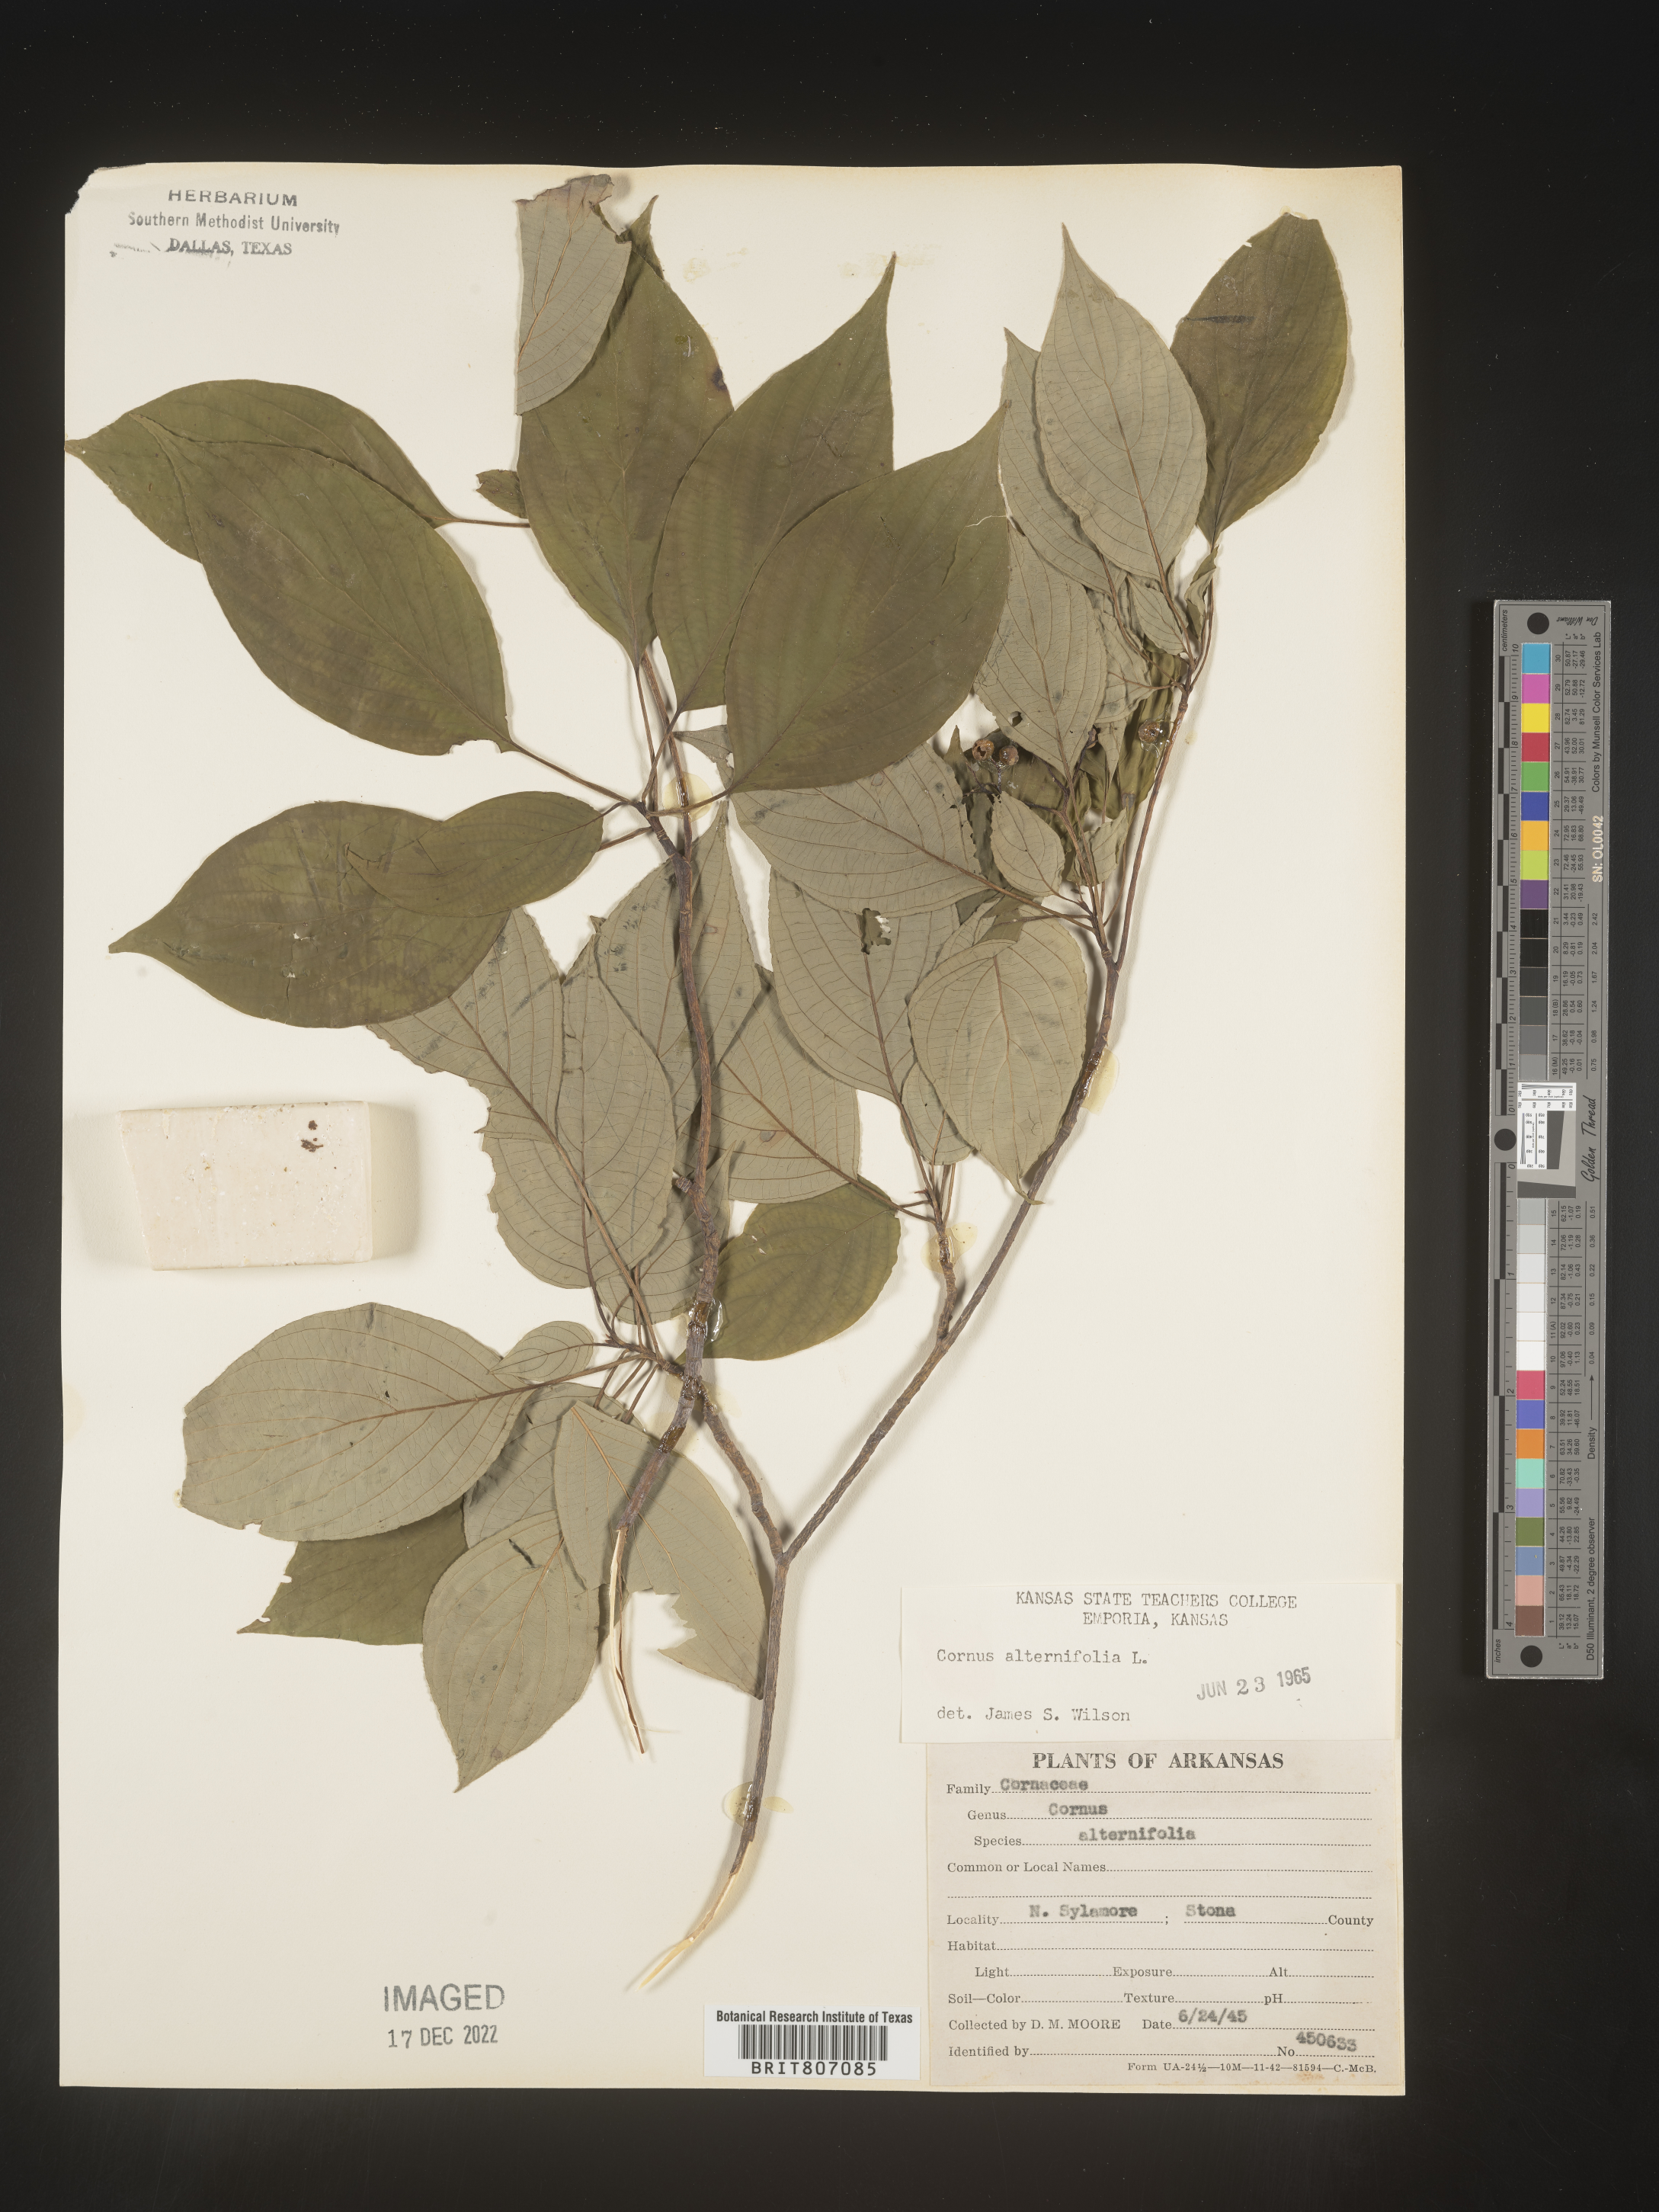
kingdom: Plantae
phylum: Tracheophyta
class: Magnoliopsida
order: Cornales
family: Cornaceae
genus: Cornus
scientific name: Cornus alternifolia
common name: Pagoda dogwood
